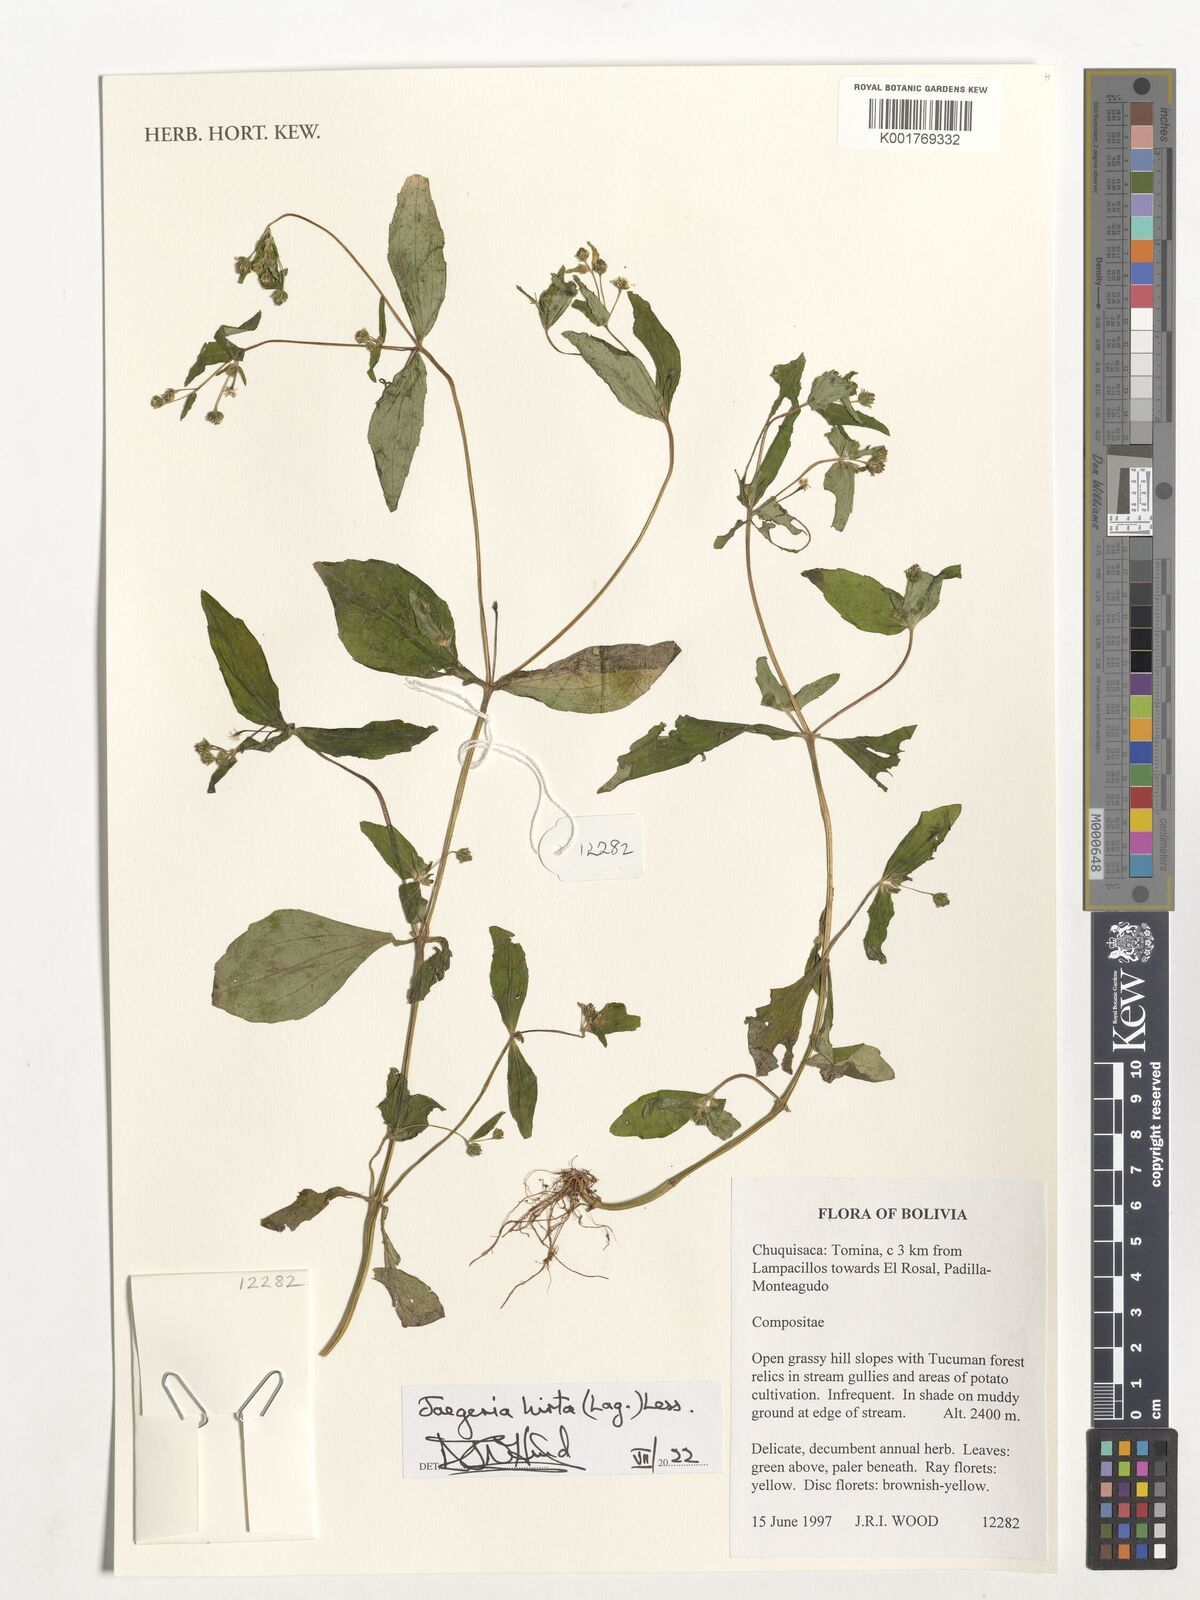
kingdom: Plantae
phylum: Tracheophyta
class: Magnoliopsida
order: Asterales
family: Asteraceae
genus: Jaegeria
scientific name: Jaegeria hirta
